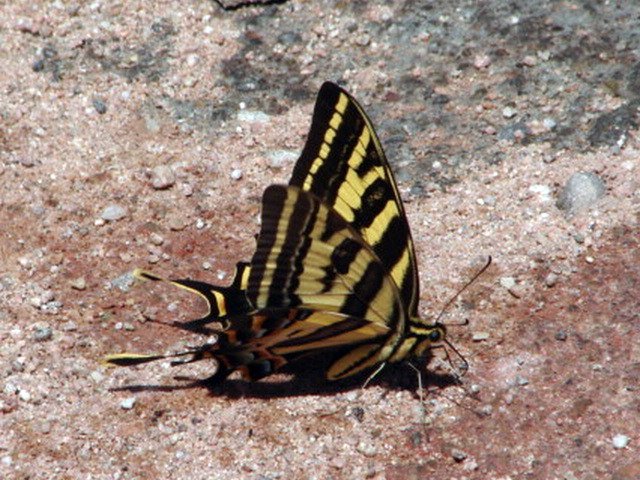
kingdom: Animalia
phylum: Arthropoda
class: Insecta
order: Lepidoptera
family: Papilionidae
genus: Pterourus
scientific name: Pterourus pilumnus
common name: Three-tailed Swallowtail
